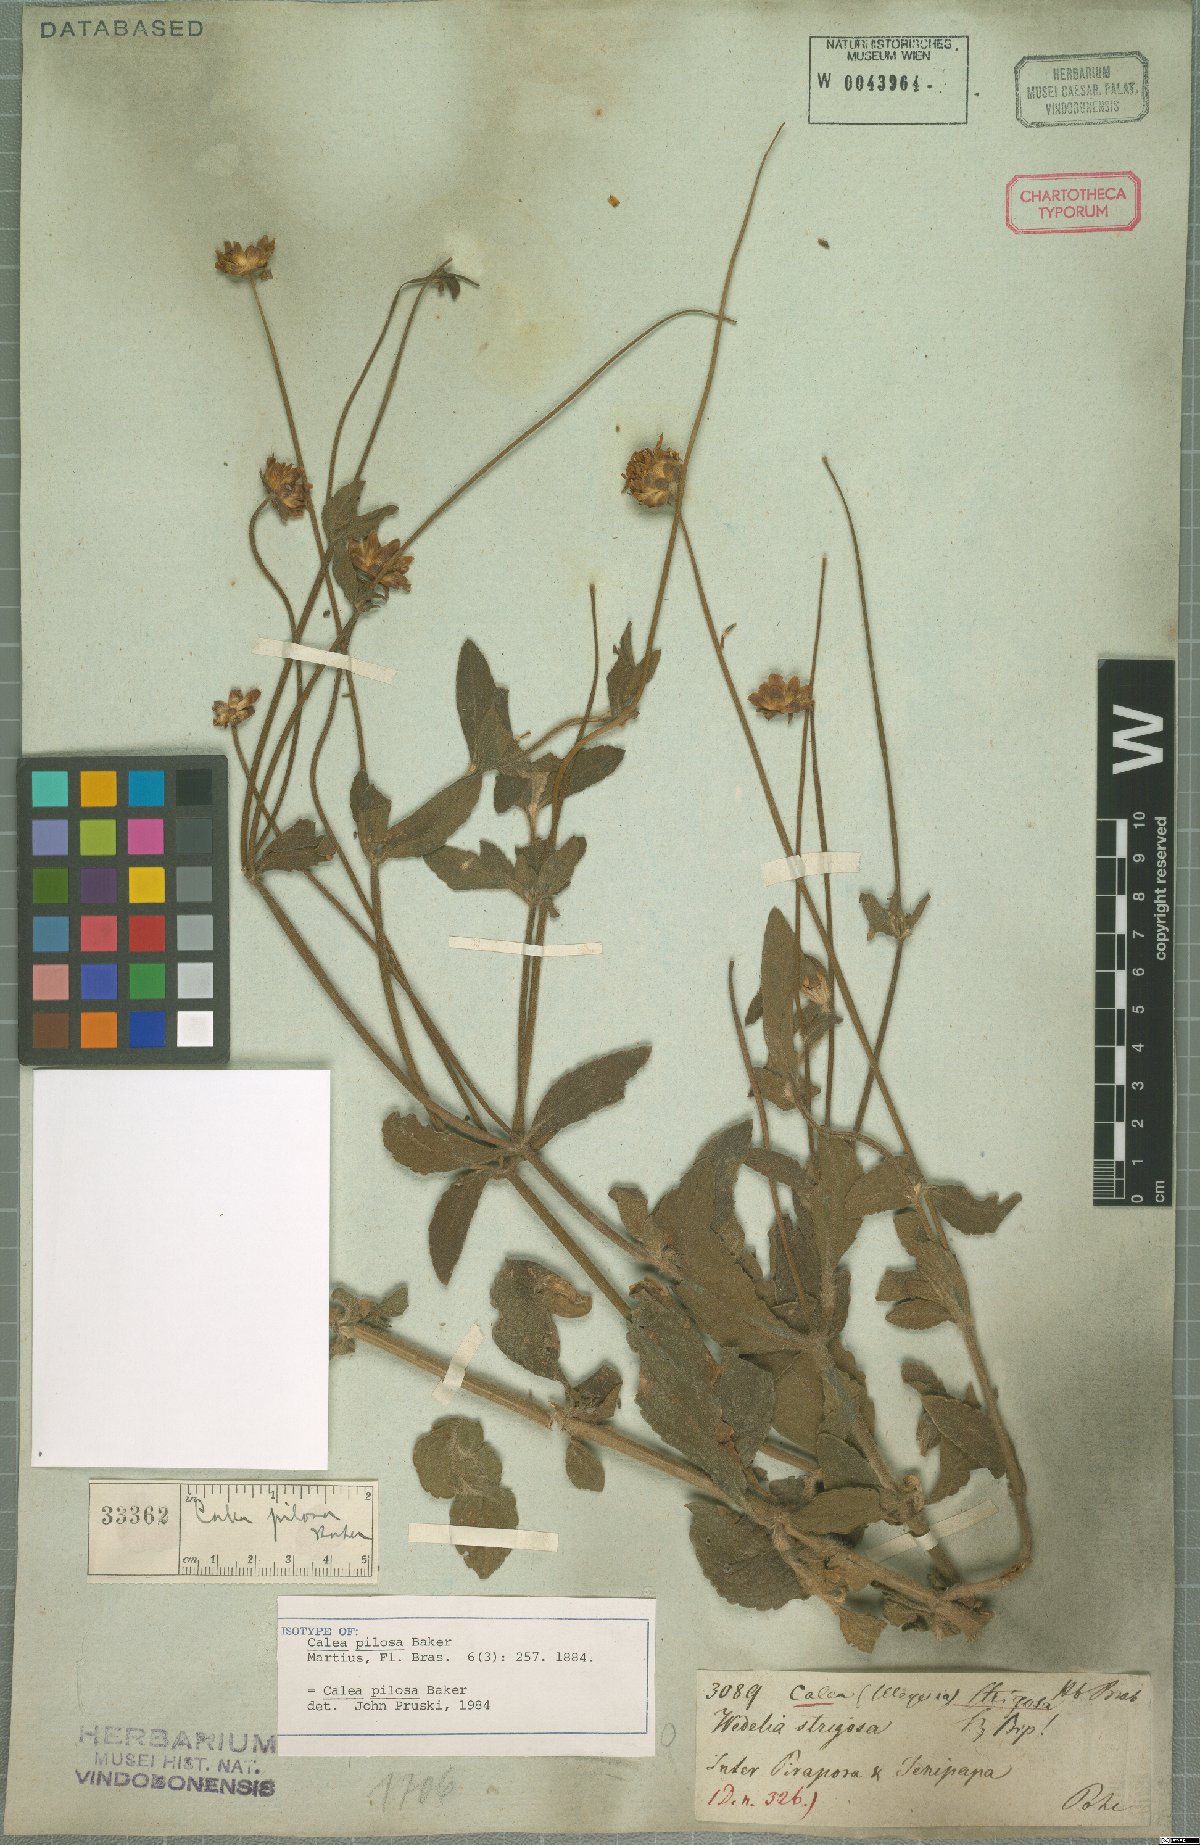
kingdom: Plantae
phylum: Tracheophyta
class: Magnoliopsida
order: Asterales
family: Asteraceae
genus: Calea
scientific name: Calea pilosa
